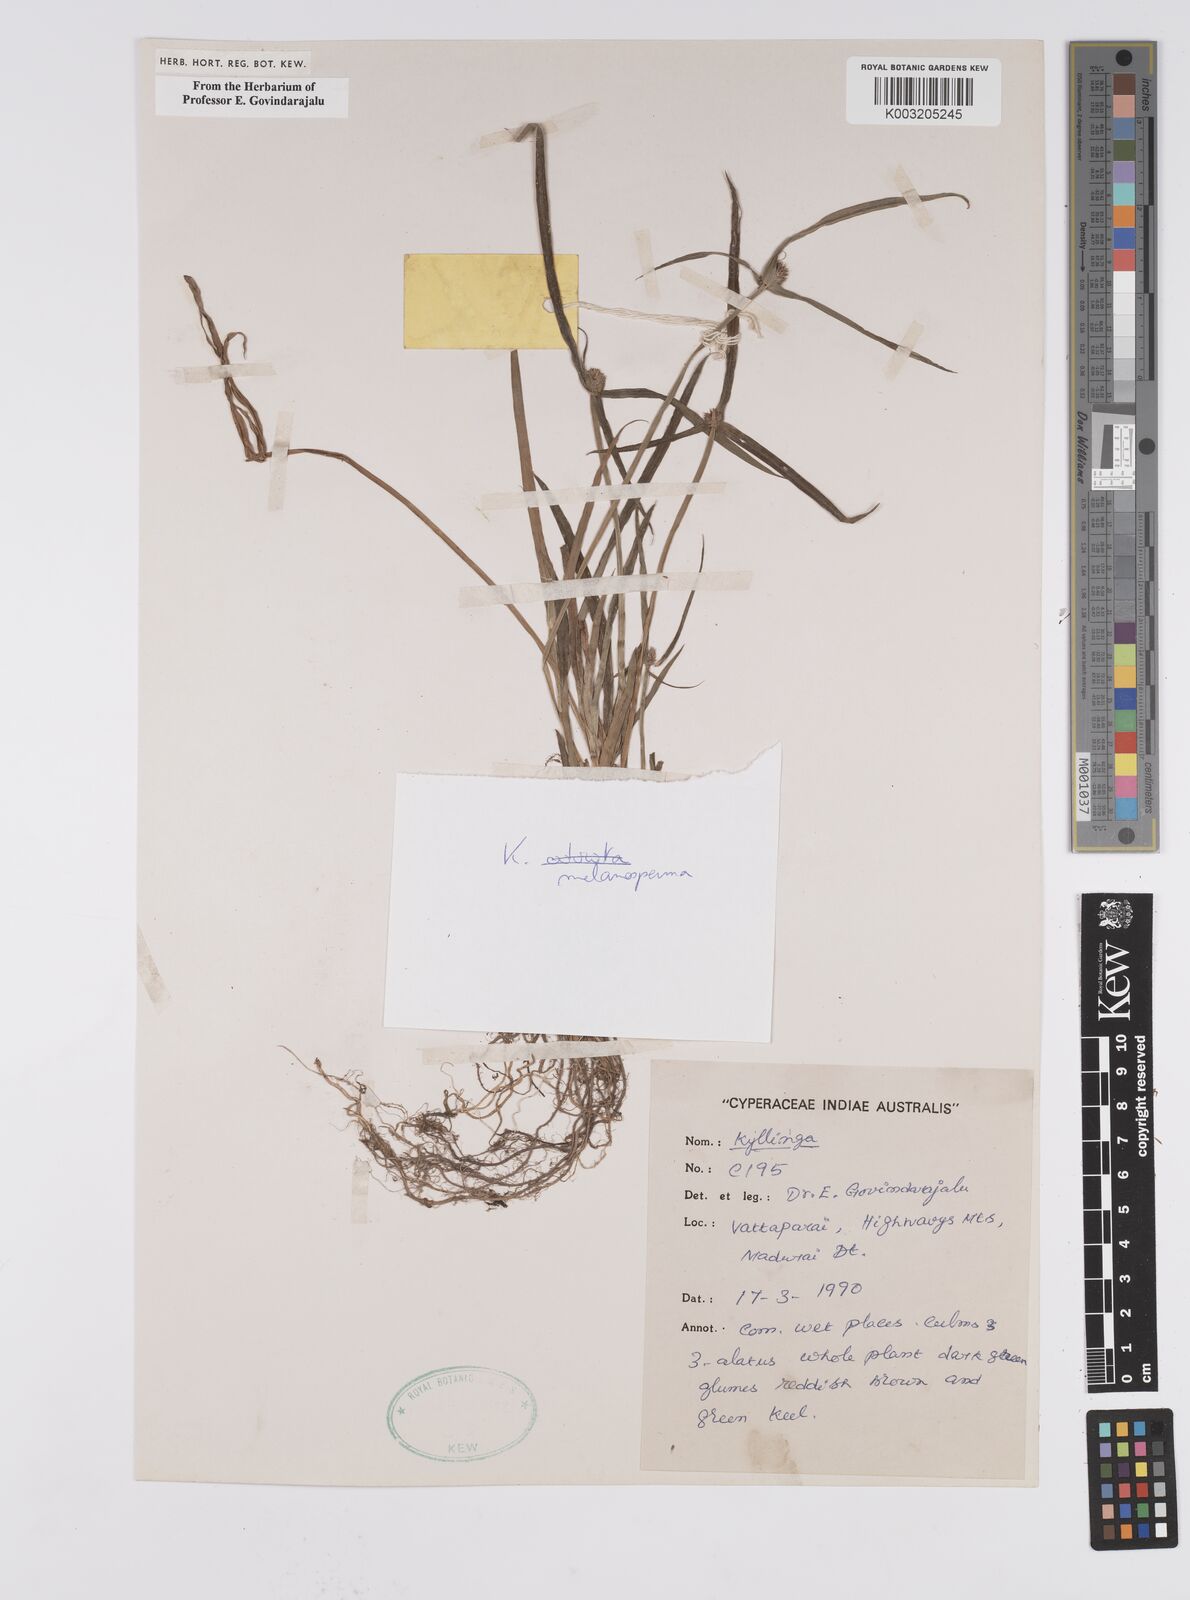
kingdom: Plantae
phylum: Tracheophyta
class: Liliopsida
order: Poales
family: Cyperaceae
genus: Cyperus
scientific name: Cyperus melanospermus
